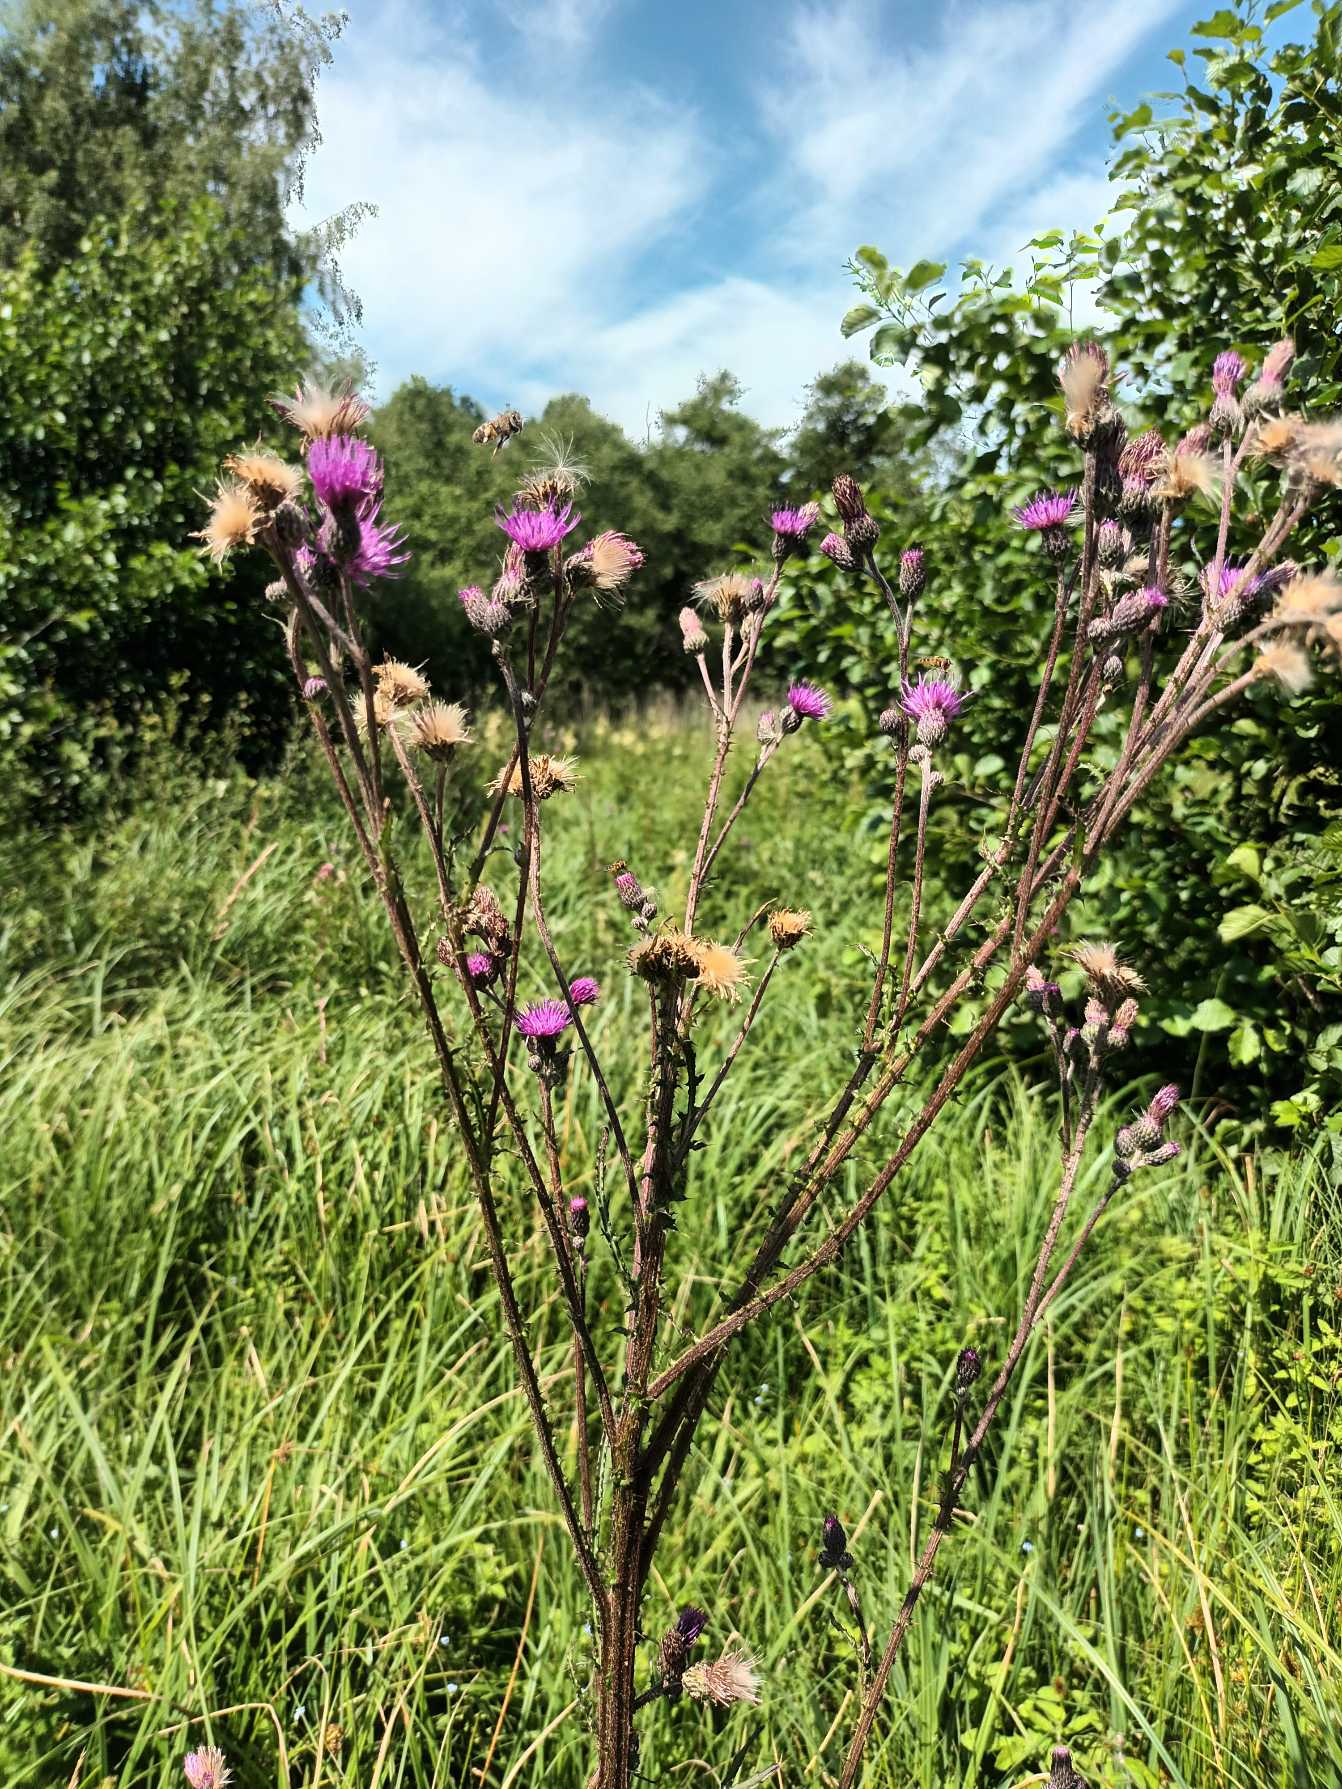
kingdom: Plantae
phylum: Tracheophyta
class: Magnoliopsida
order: Asterales
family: Asteraceae
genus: Cirsium
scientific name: Cirsium palustre
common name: Kær-tidsel
